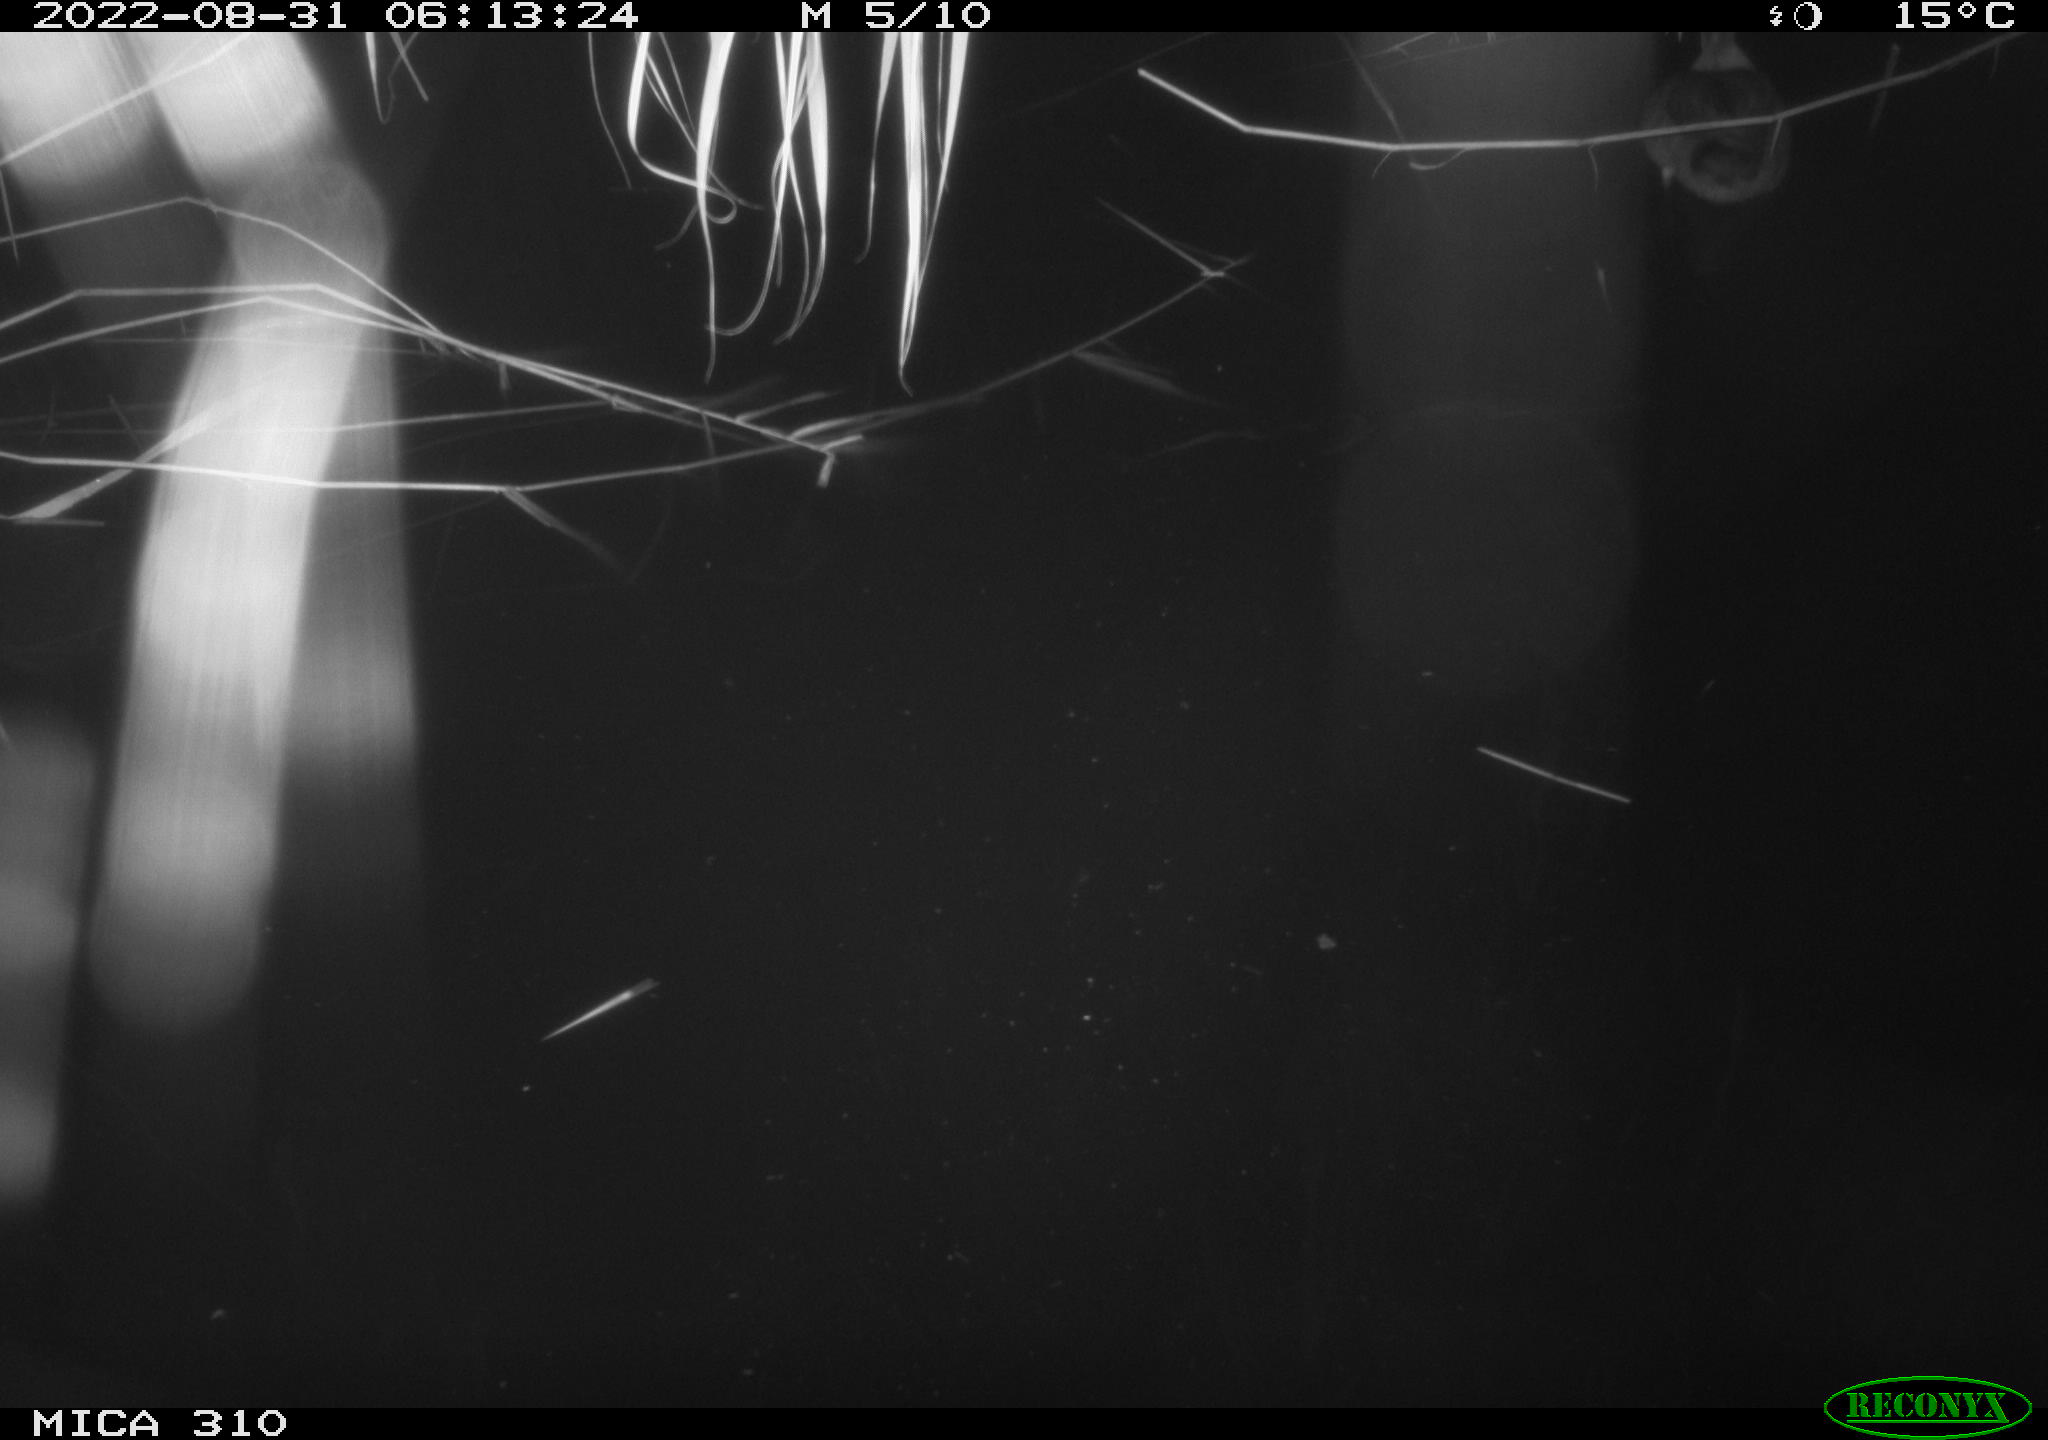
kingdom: Animalia
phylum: Chordata
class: Aves
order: Anseriformes
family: Anatidae
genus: Anas
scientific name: Anas platyrhynchos
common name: Mallard
